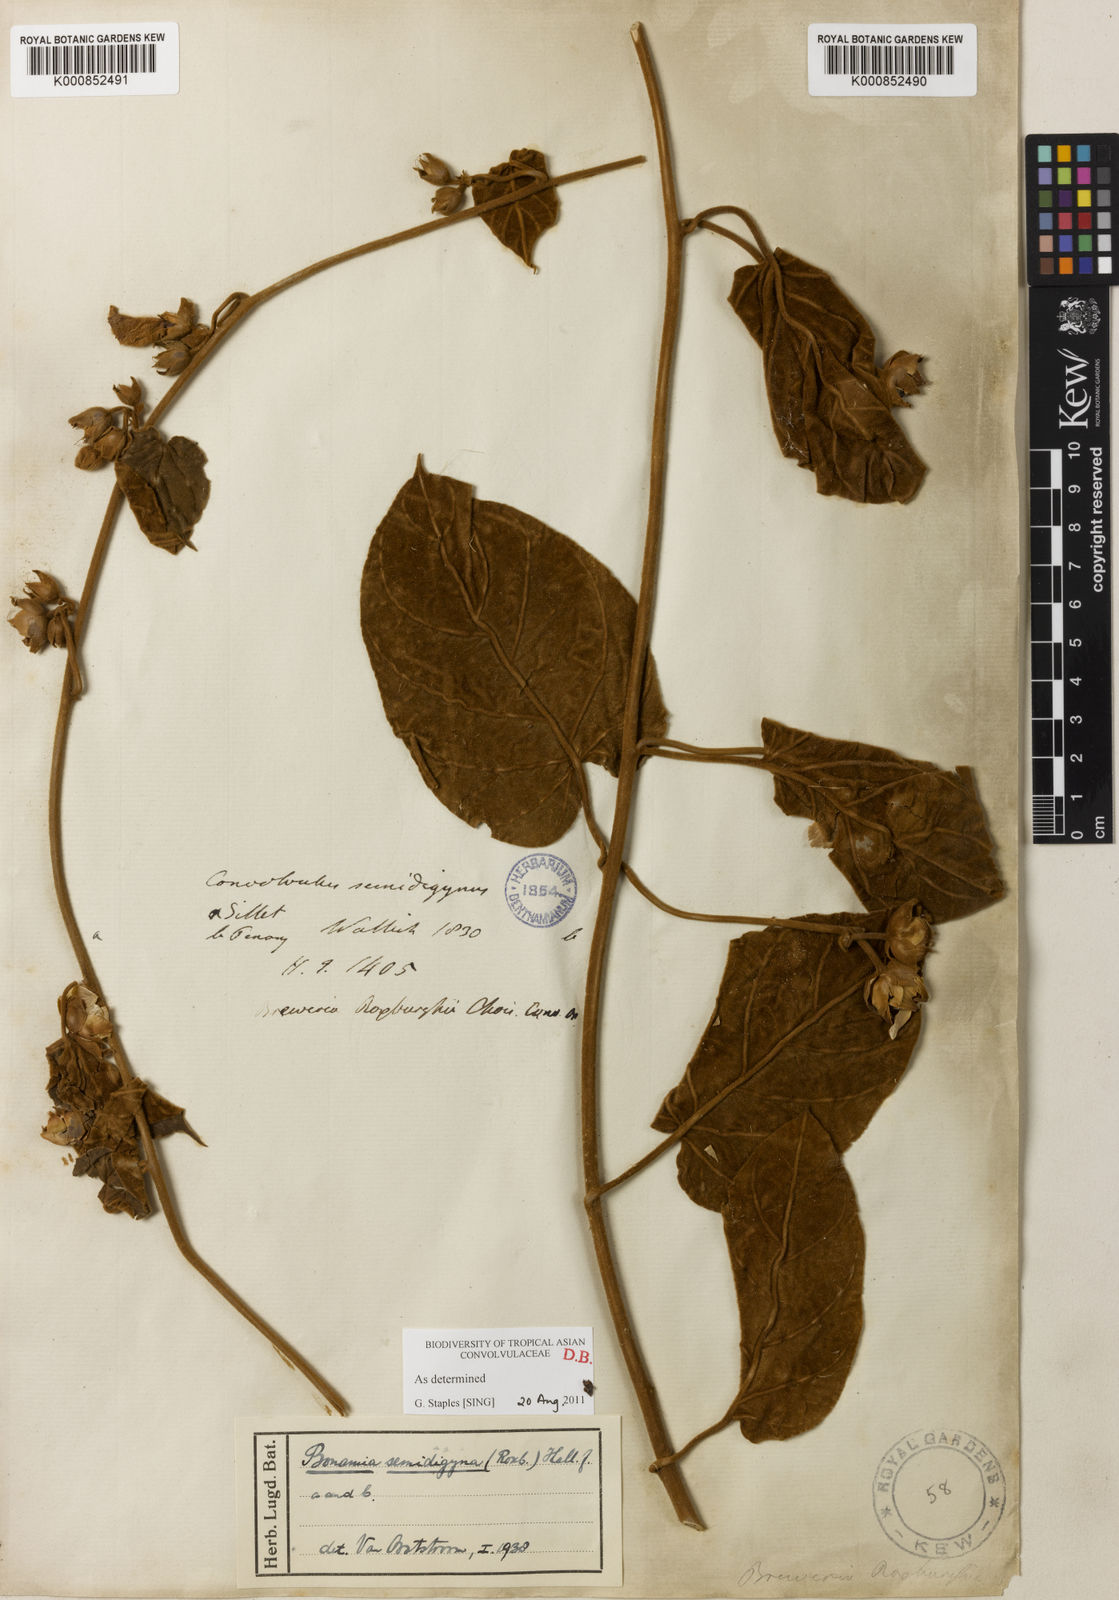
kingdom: Plantae
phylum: Tracheophyta
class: Magnoliopsida
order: Solanales
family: Convolvulaceae
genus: Bonamia
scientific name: Bonamia semidigyna
